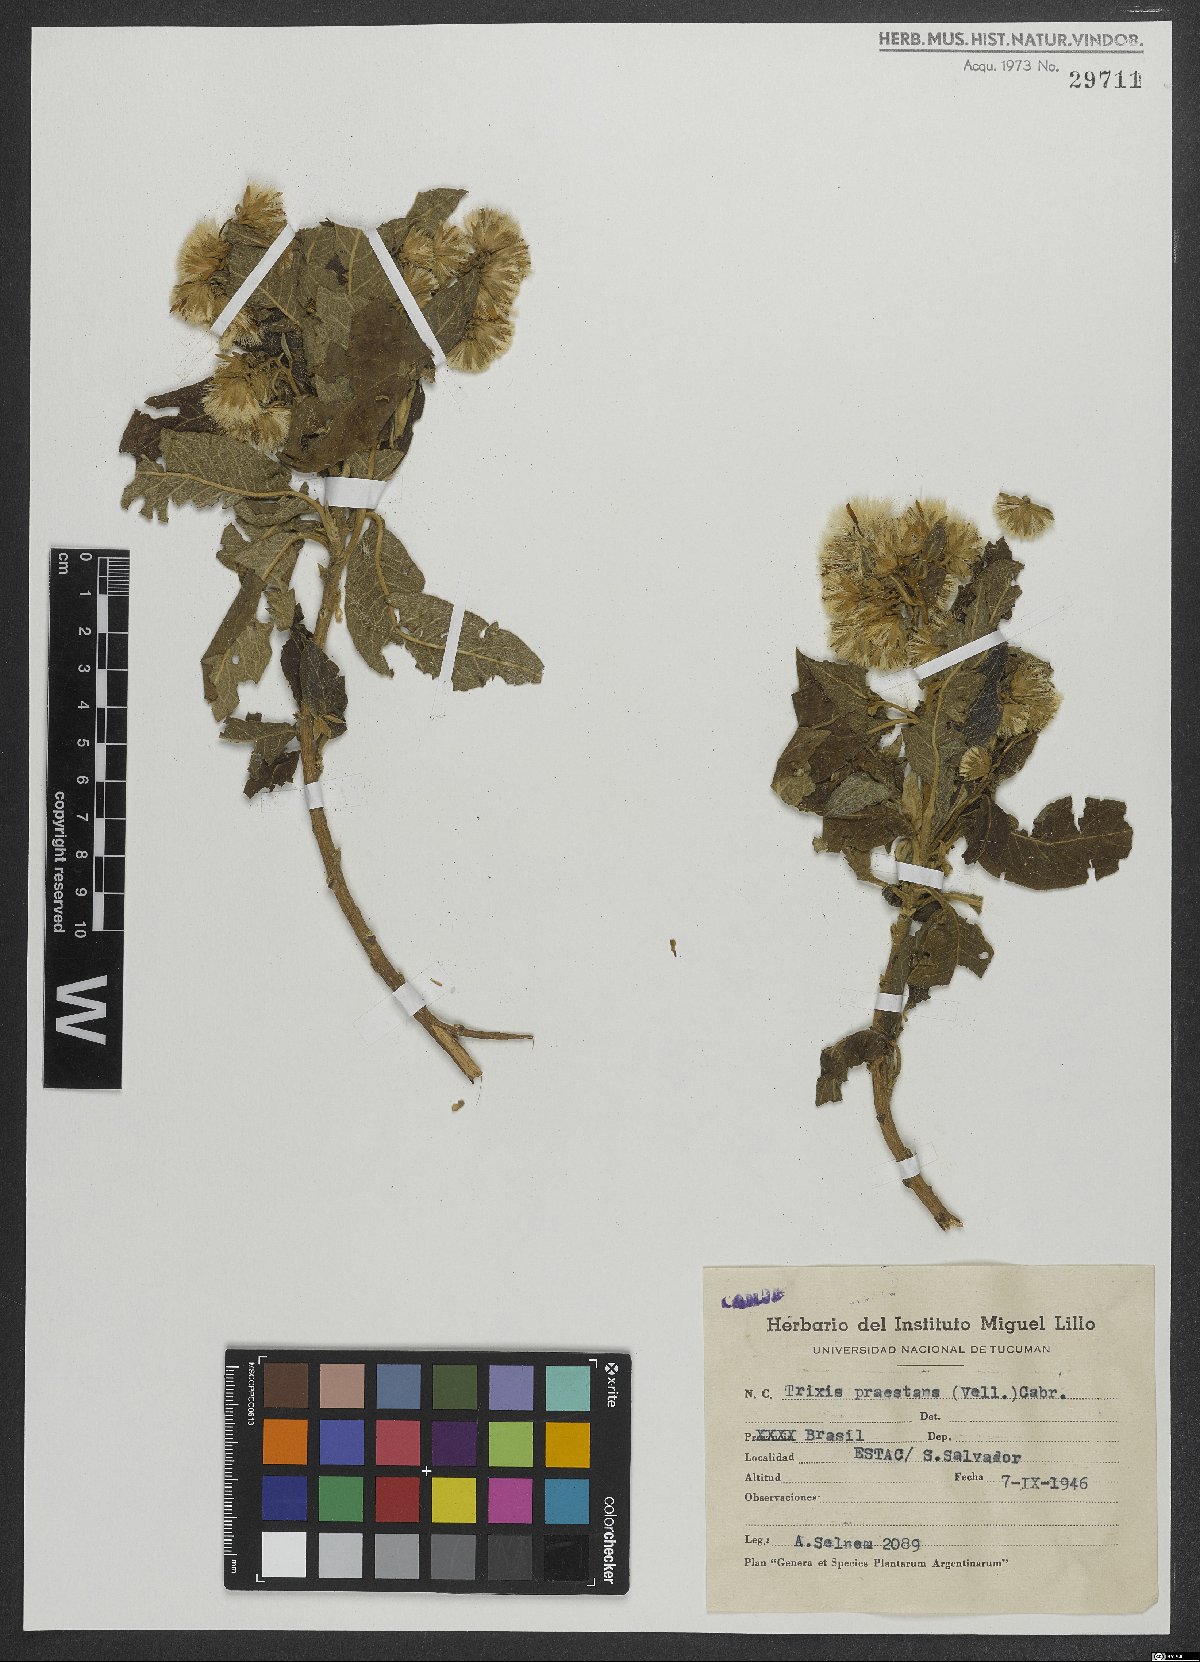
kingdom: Plantae
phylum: Tracheophyta
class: Magnoliopsida
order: Asterales
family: Asteraceae
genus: Trixis
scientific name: Trixis praestans
